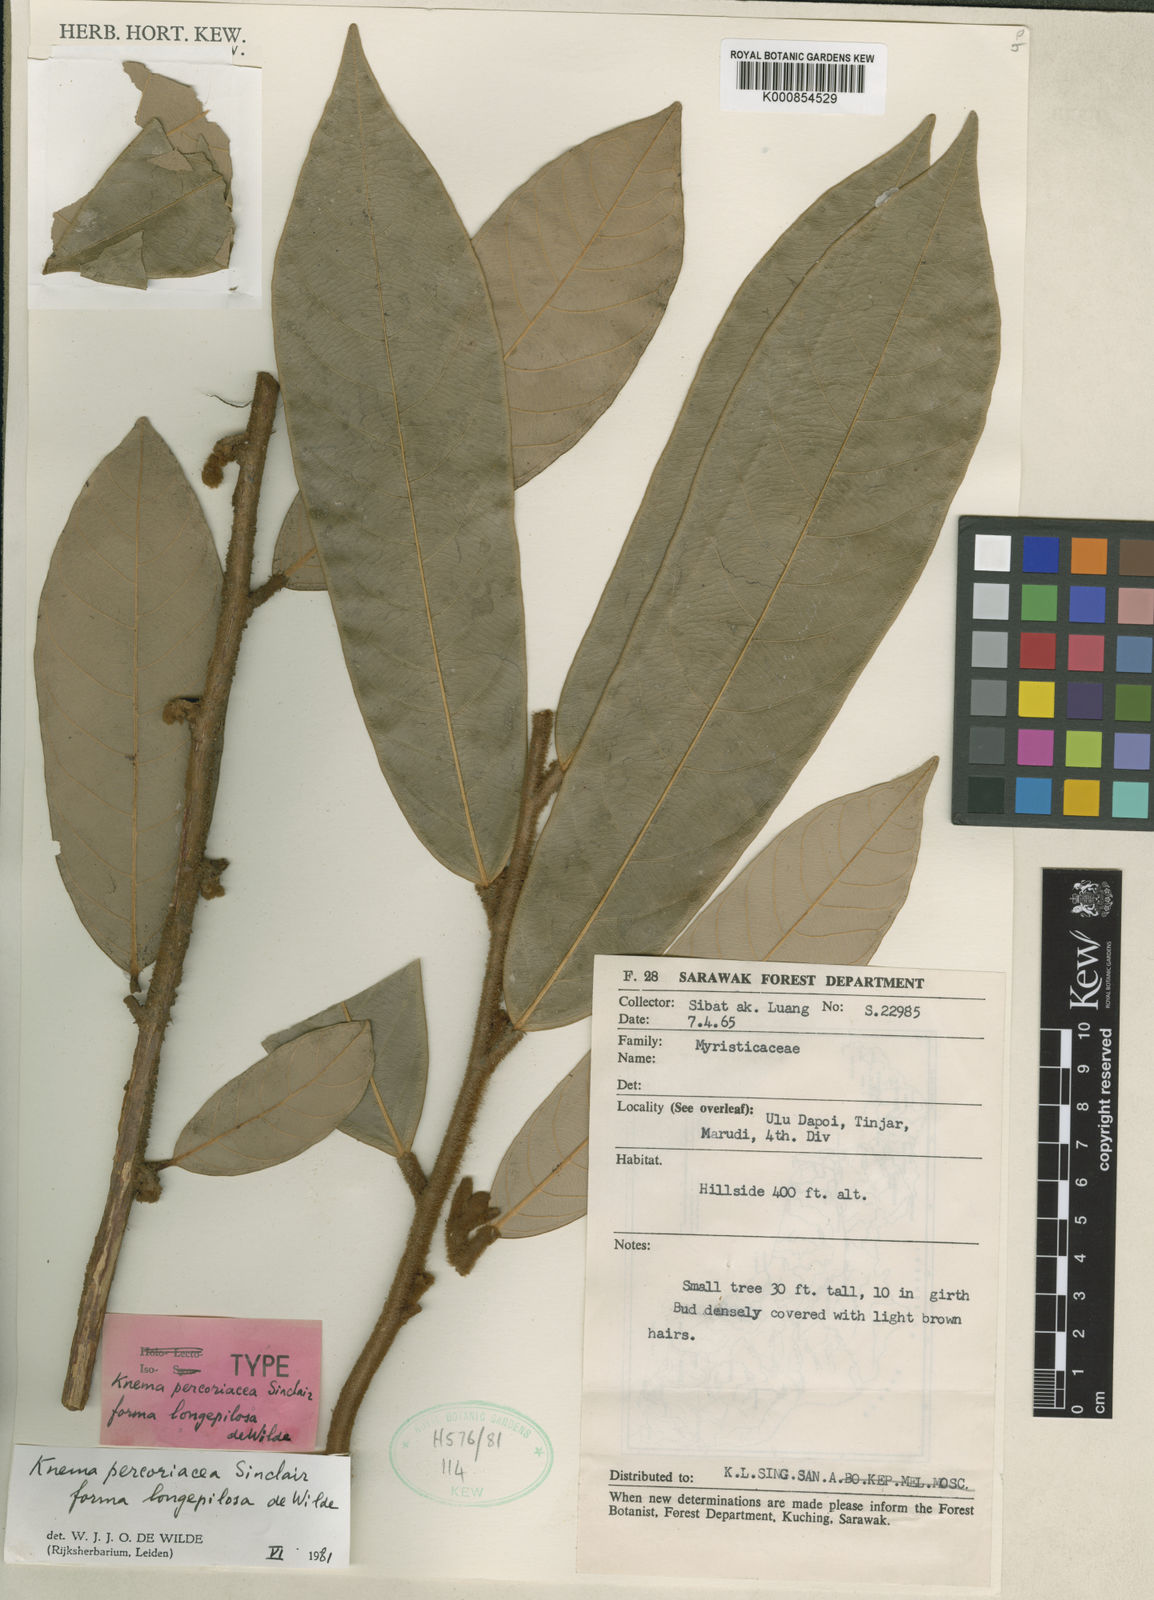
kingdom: Plantae
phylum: Tracheophyta
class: Magnoliopsida
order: Magnoliales
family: Myristicaceae
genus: Knema
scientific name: Knema percoriacea
